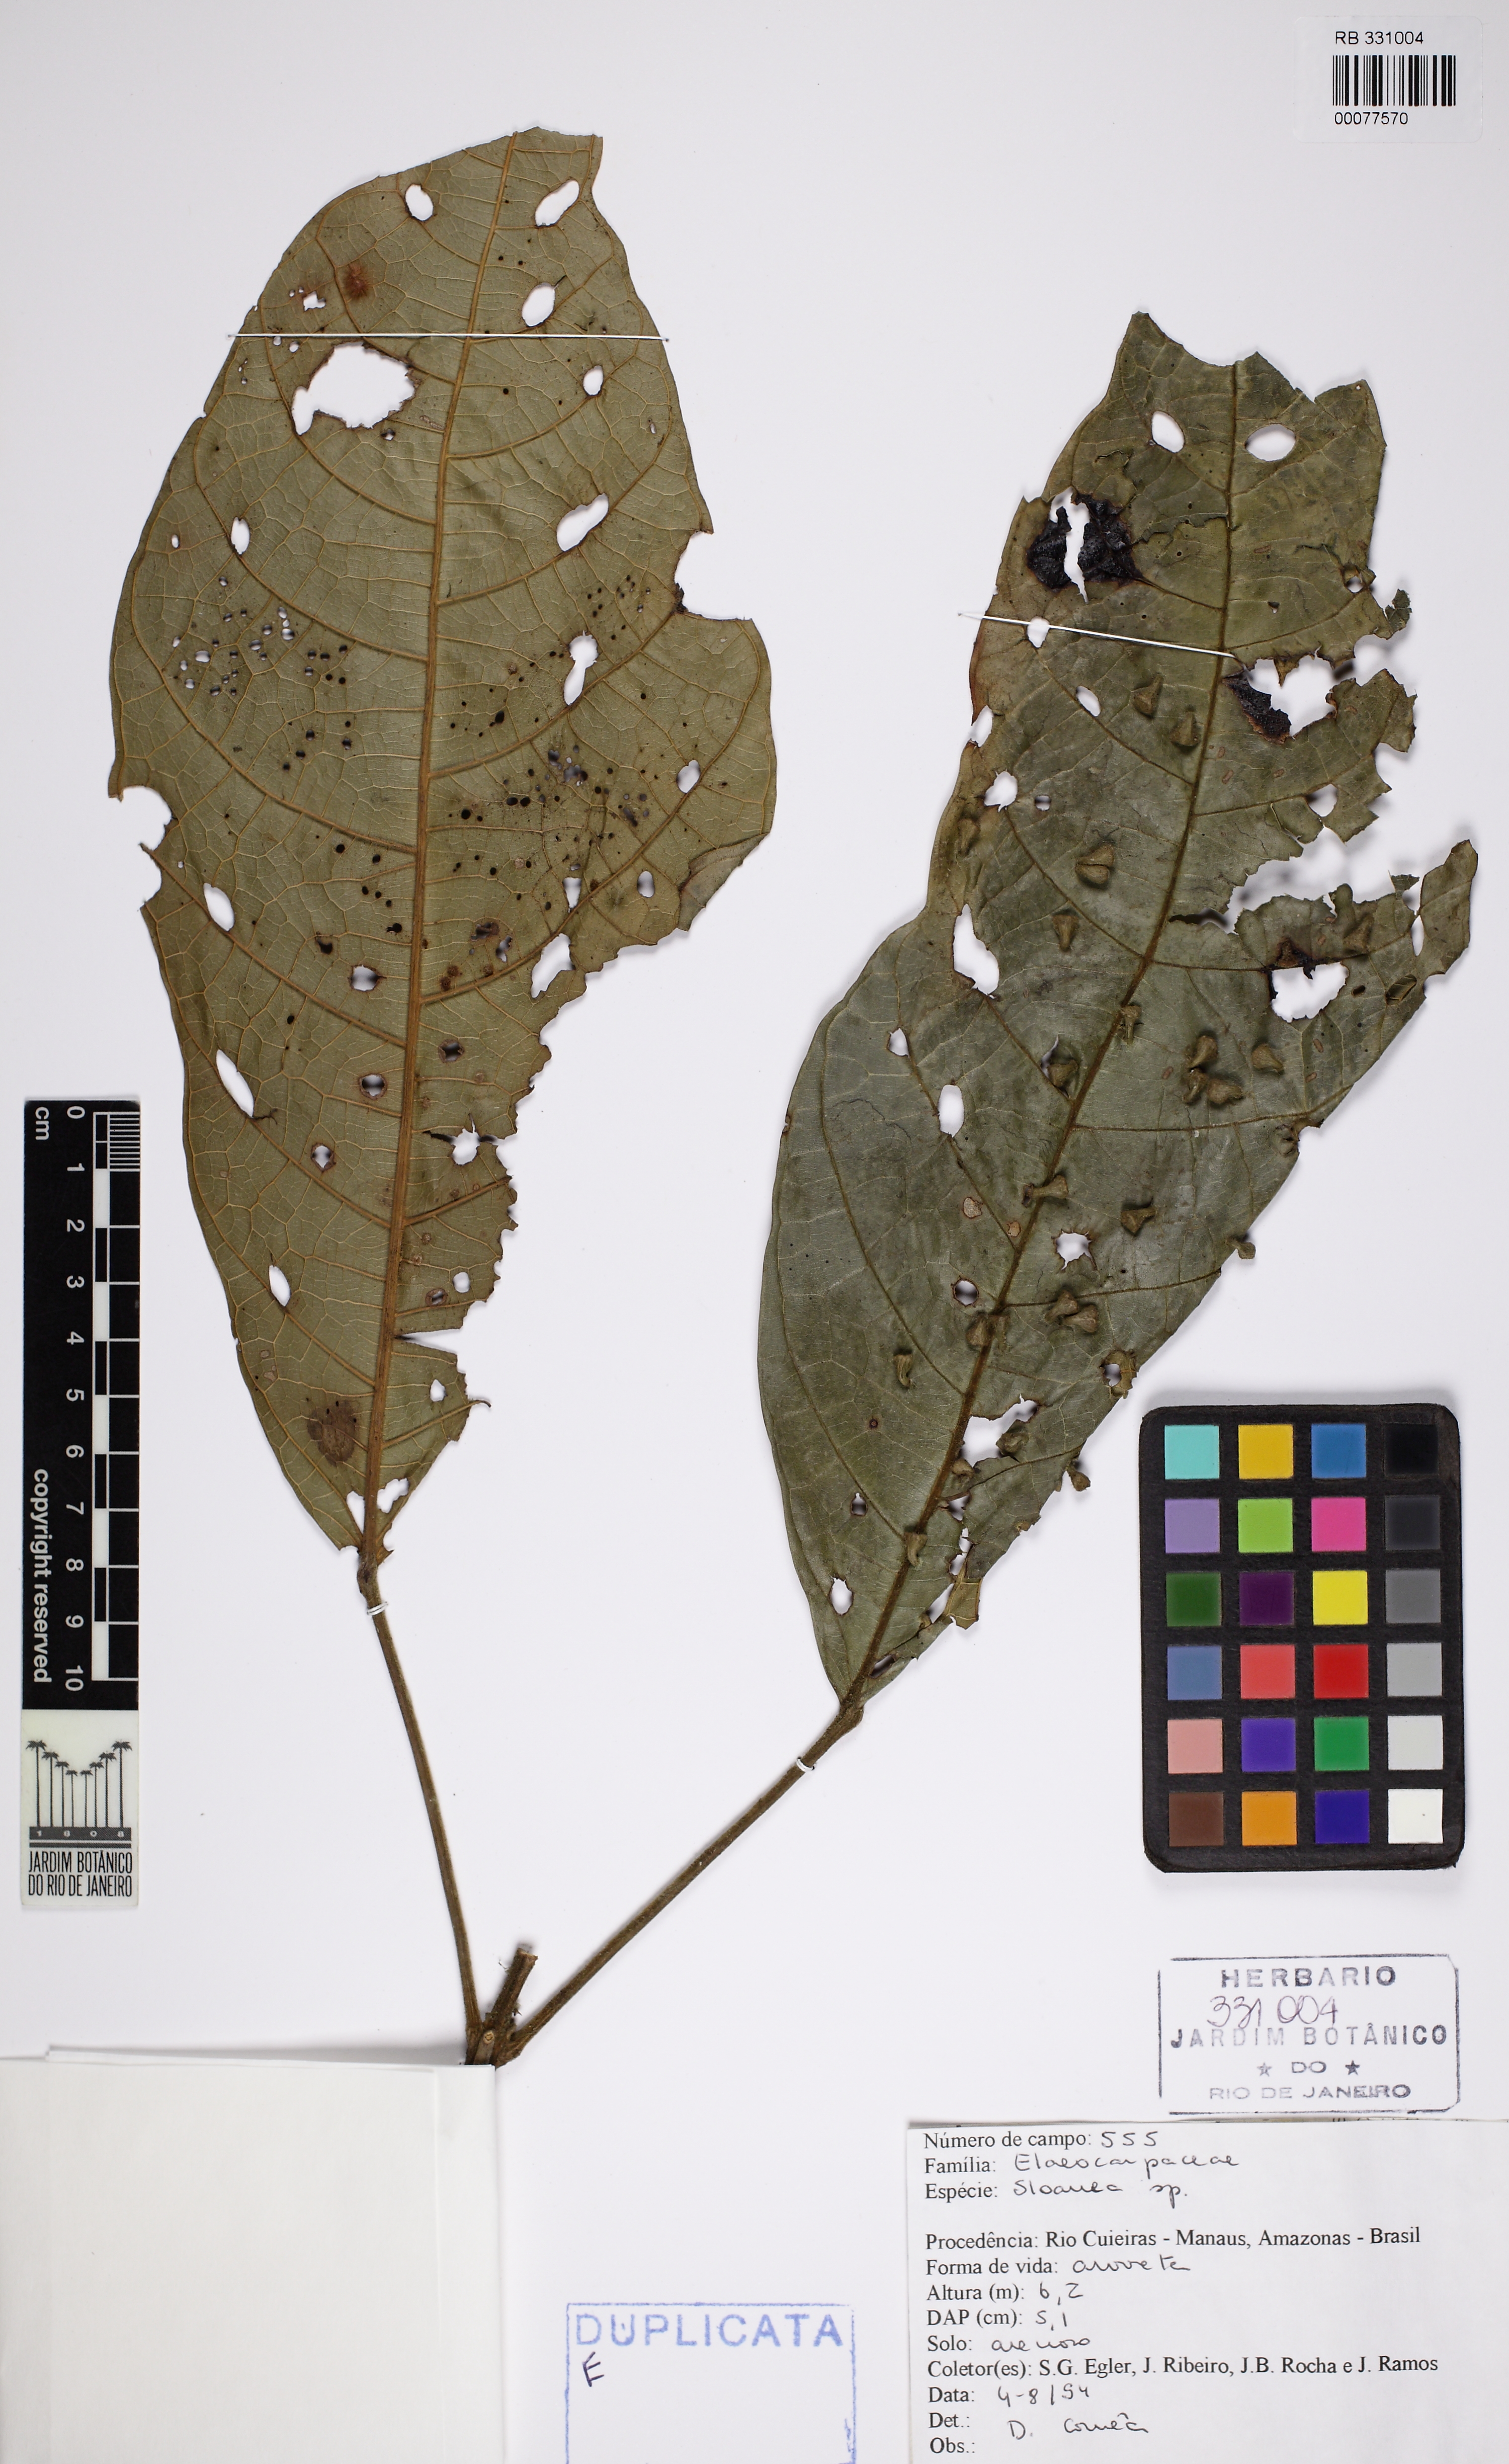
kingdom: Plantae
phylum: Tracheophyta
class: Magnoliopsida
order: Oxalidales
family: Elaeocarpaceae
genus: Sloanea
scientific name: Sloanea
